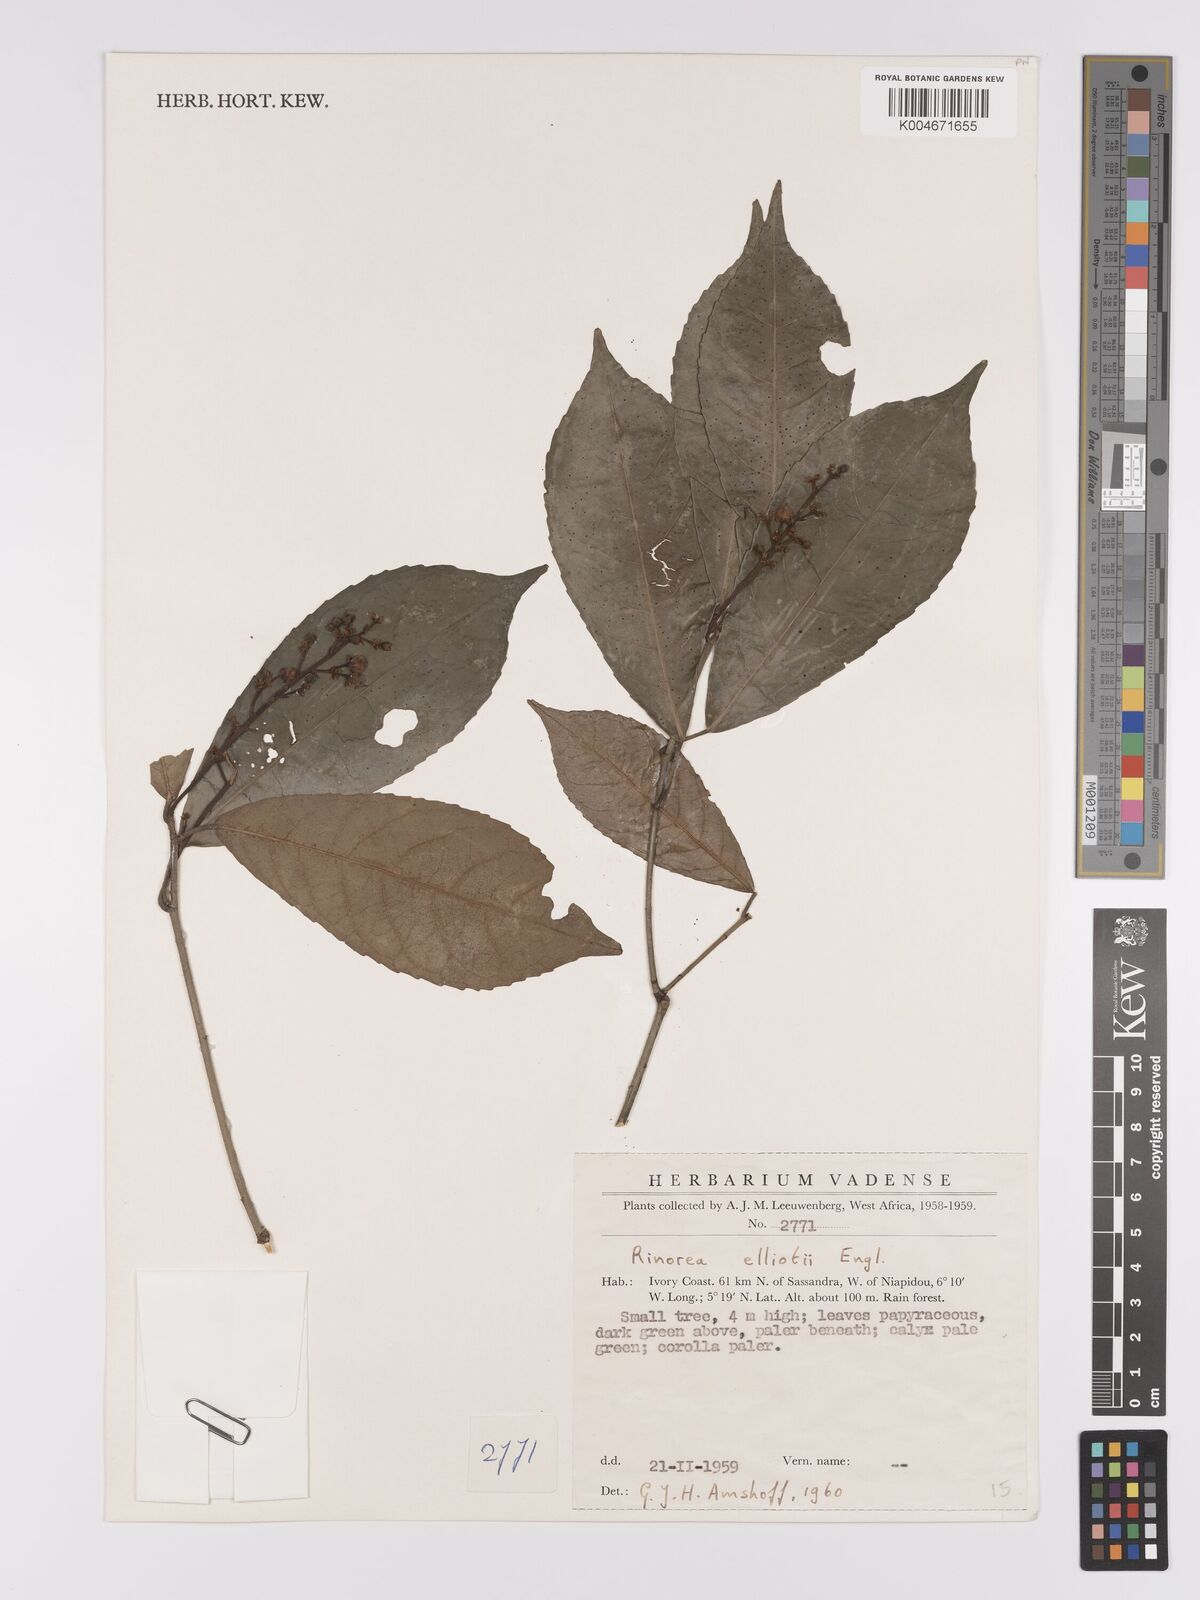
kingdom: Plantae
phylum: Tracheophyta
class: Magnoliopsida
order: Malpighiales
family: Violaceae
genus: Rinorea
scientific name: Rinorea welwitschii
